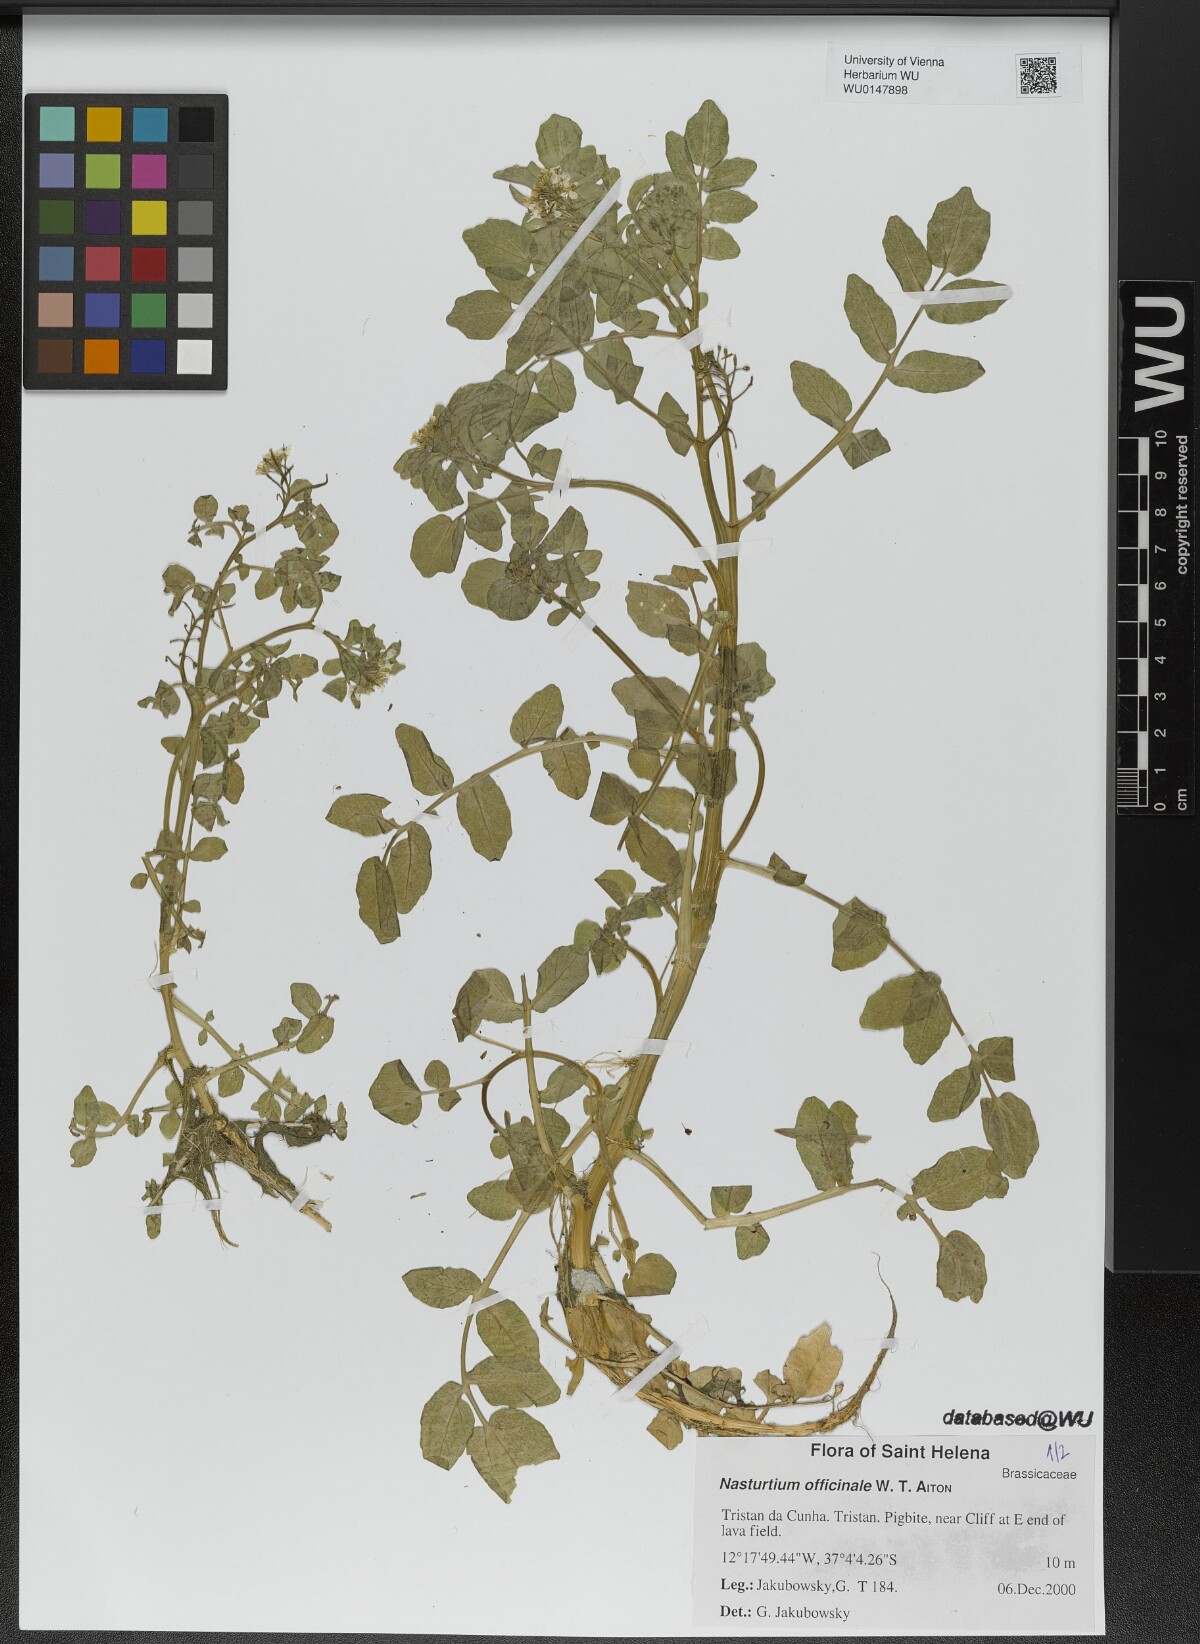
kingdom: Plantae
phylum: Tracheophyta
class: Magnoliopsida
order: Brassicales
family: Brassicaceae
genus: Nasturtium
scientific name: Nasturtium officinale
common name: Watercress
